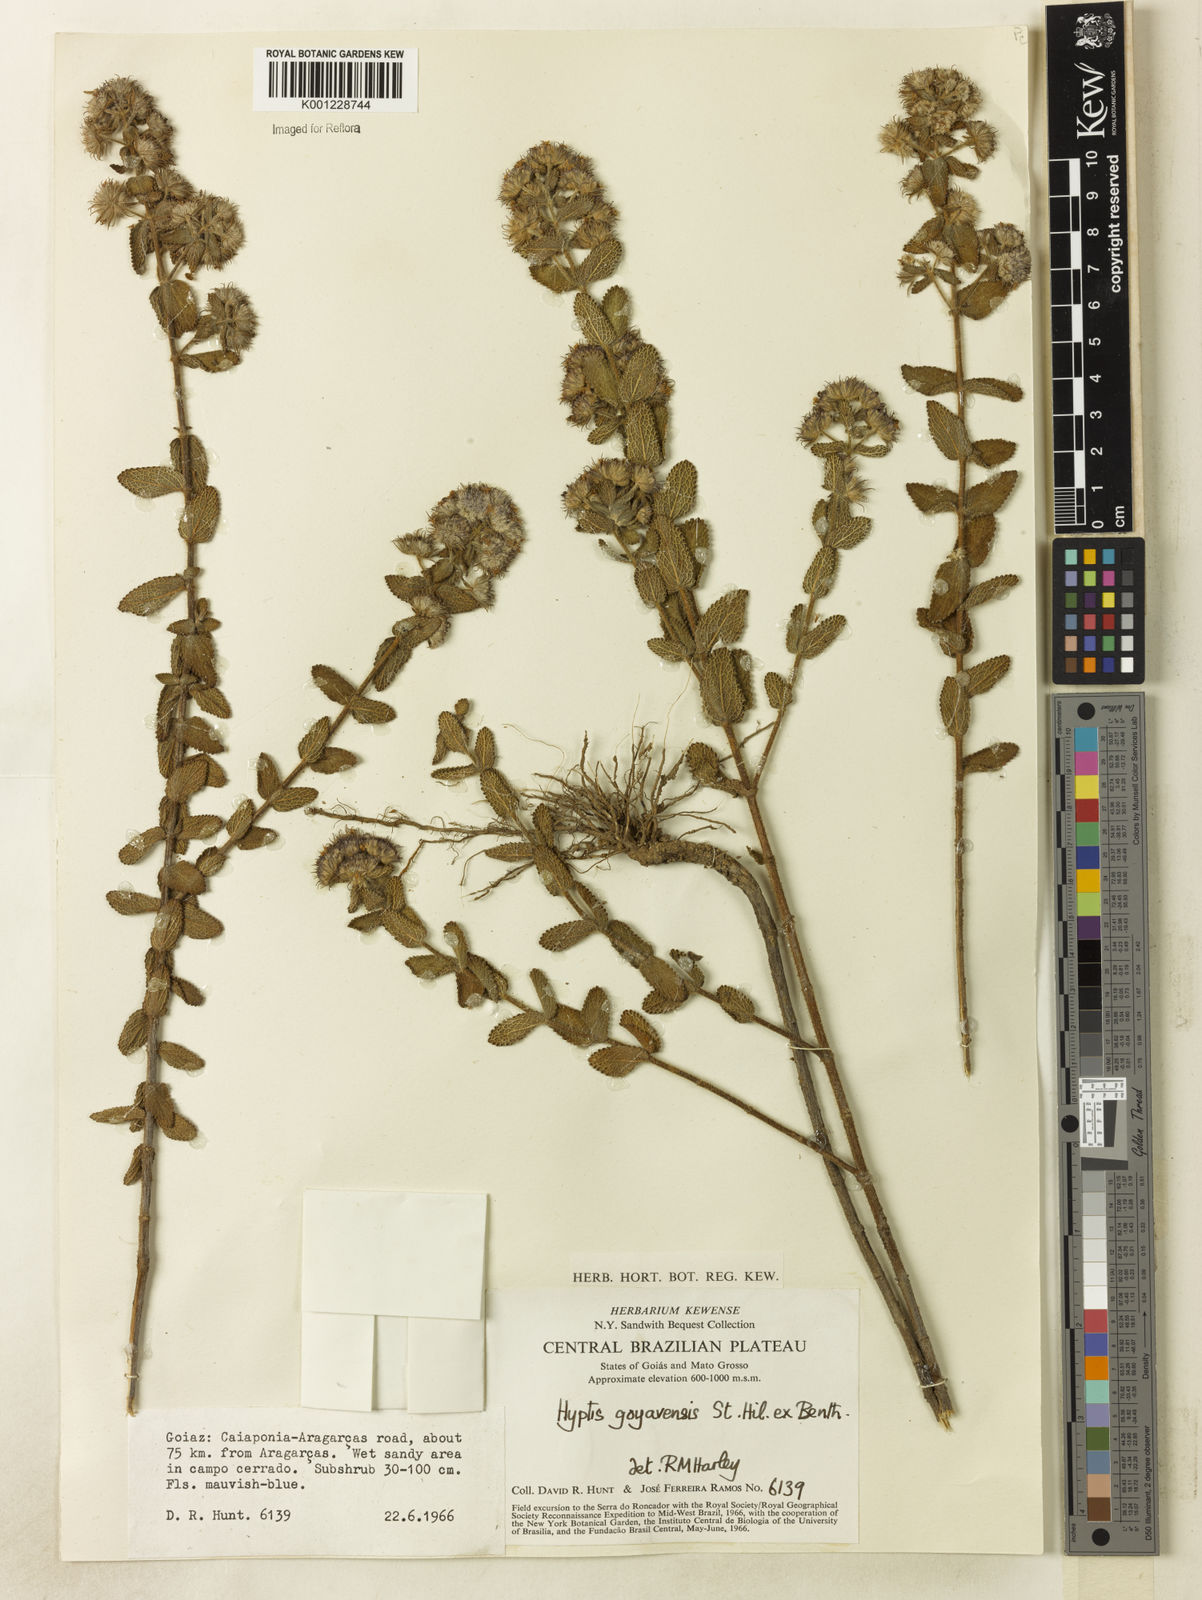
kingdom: Plantae
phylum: Tracheophyta
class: Magnoliopsida
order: Lamiales
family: Lamiaceae
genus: Hyptis
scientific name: Hyptis crenata
